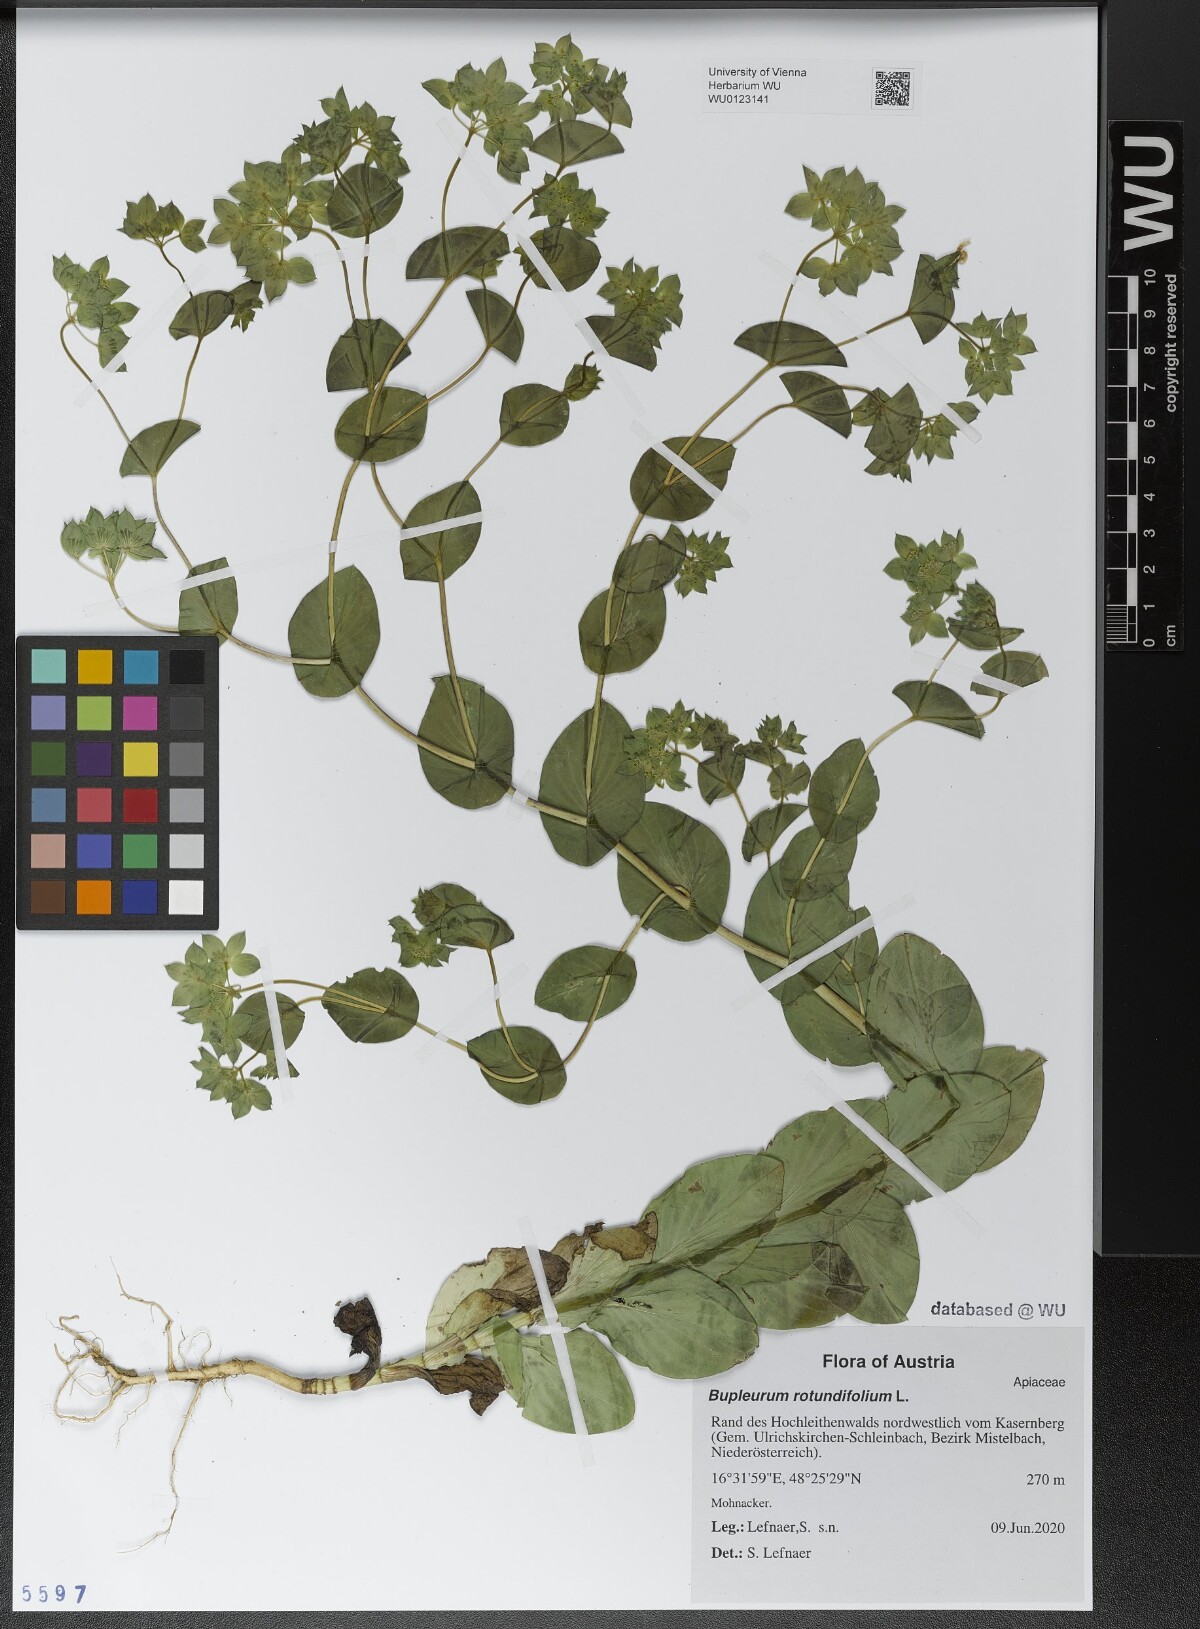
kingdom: Plantae
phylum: Tracheophyta
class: Magnoliopsida
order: Apiales
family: Apiaceae
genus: Bupleurum
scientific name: Bupleurum rotundifolium
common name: Thorow-wax
